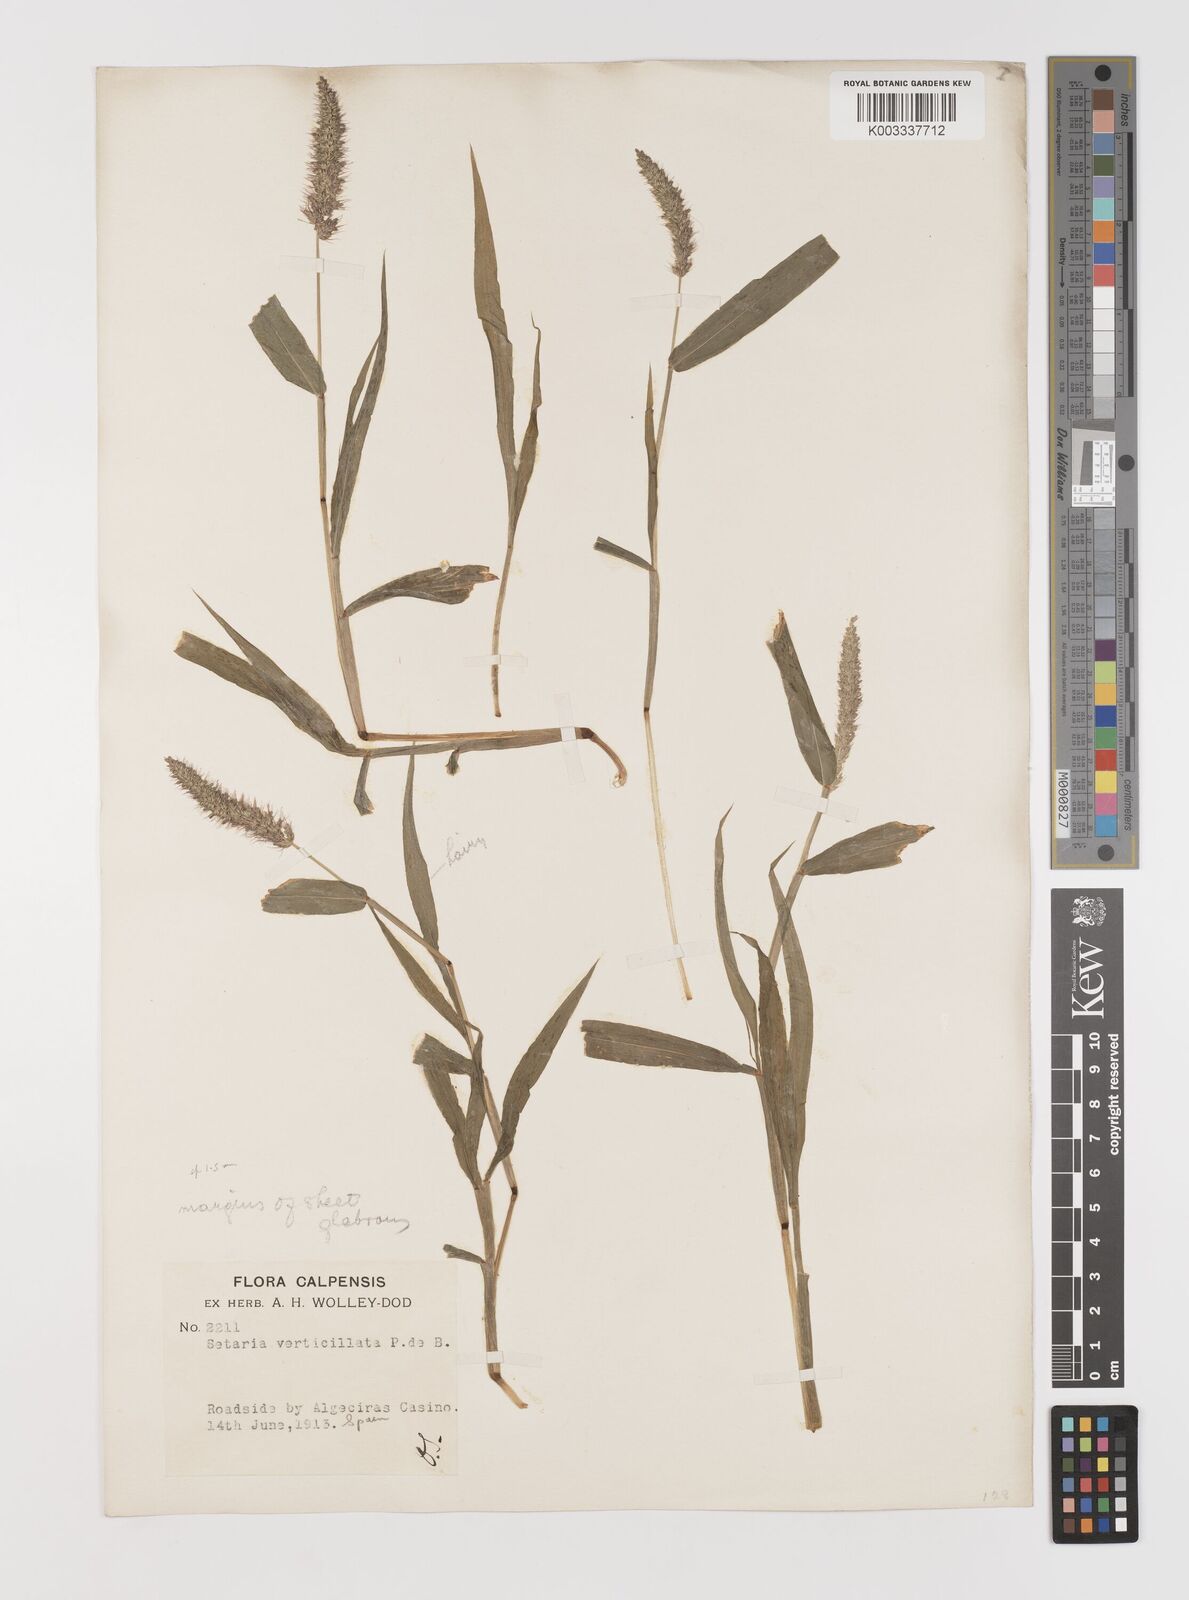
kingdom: Plantae
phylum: Tracheophyta
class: Liliopsida
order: Poales
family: Poaceae
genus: Setaria
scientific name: Setaria verticillata
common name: Hooked bristlegrass
